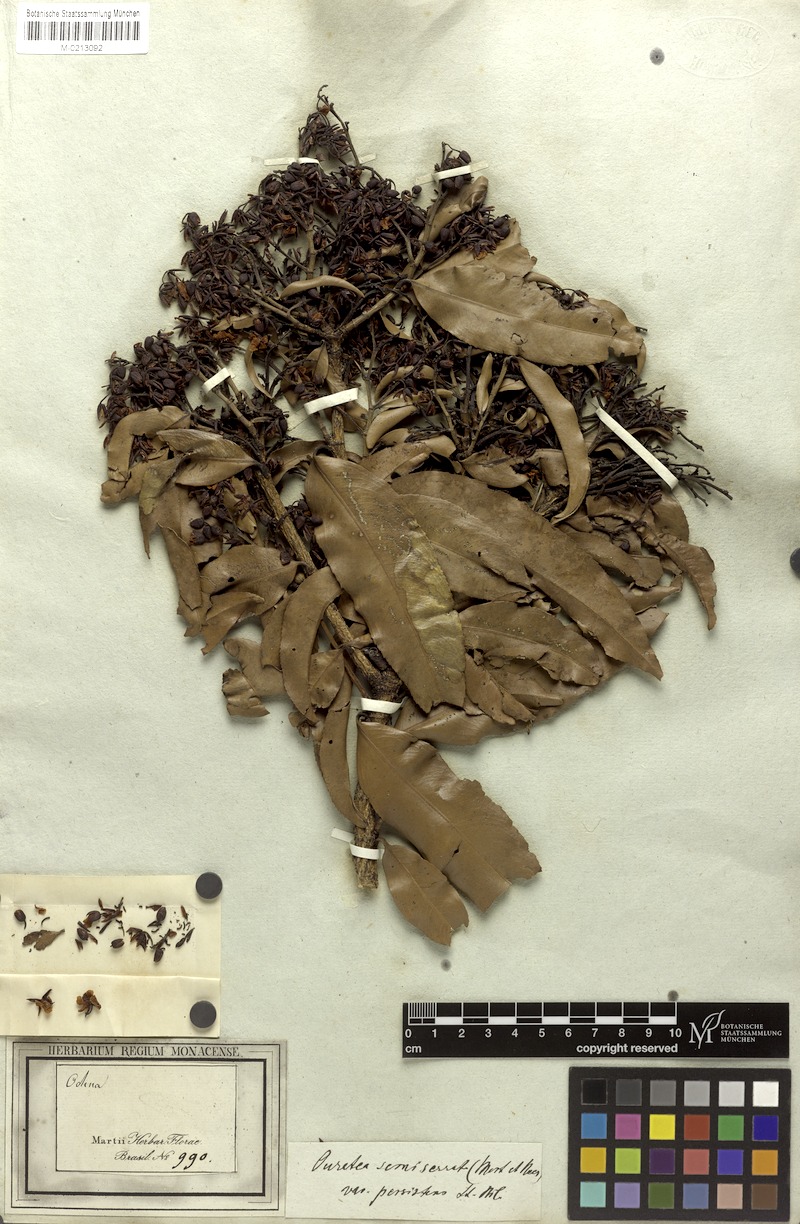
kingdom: Plantae
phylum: Tracheophyta
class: Magnoliopsida
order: Malpighiales
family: Ochnaceae
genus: Ouratea
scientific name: Ouratea semiserrata
